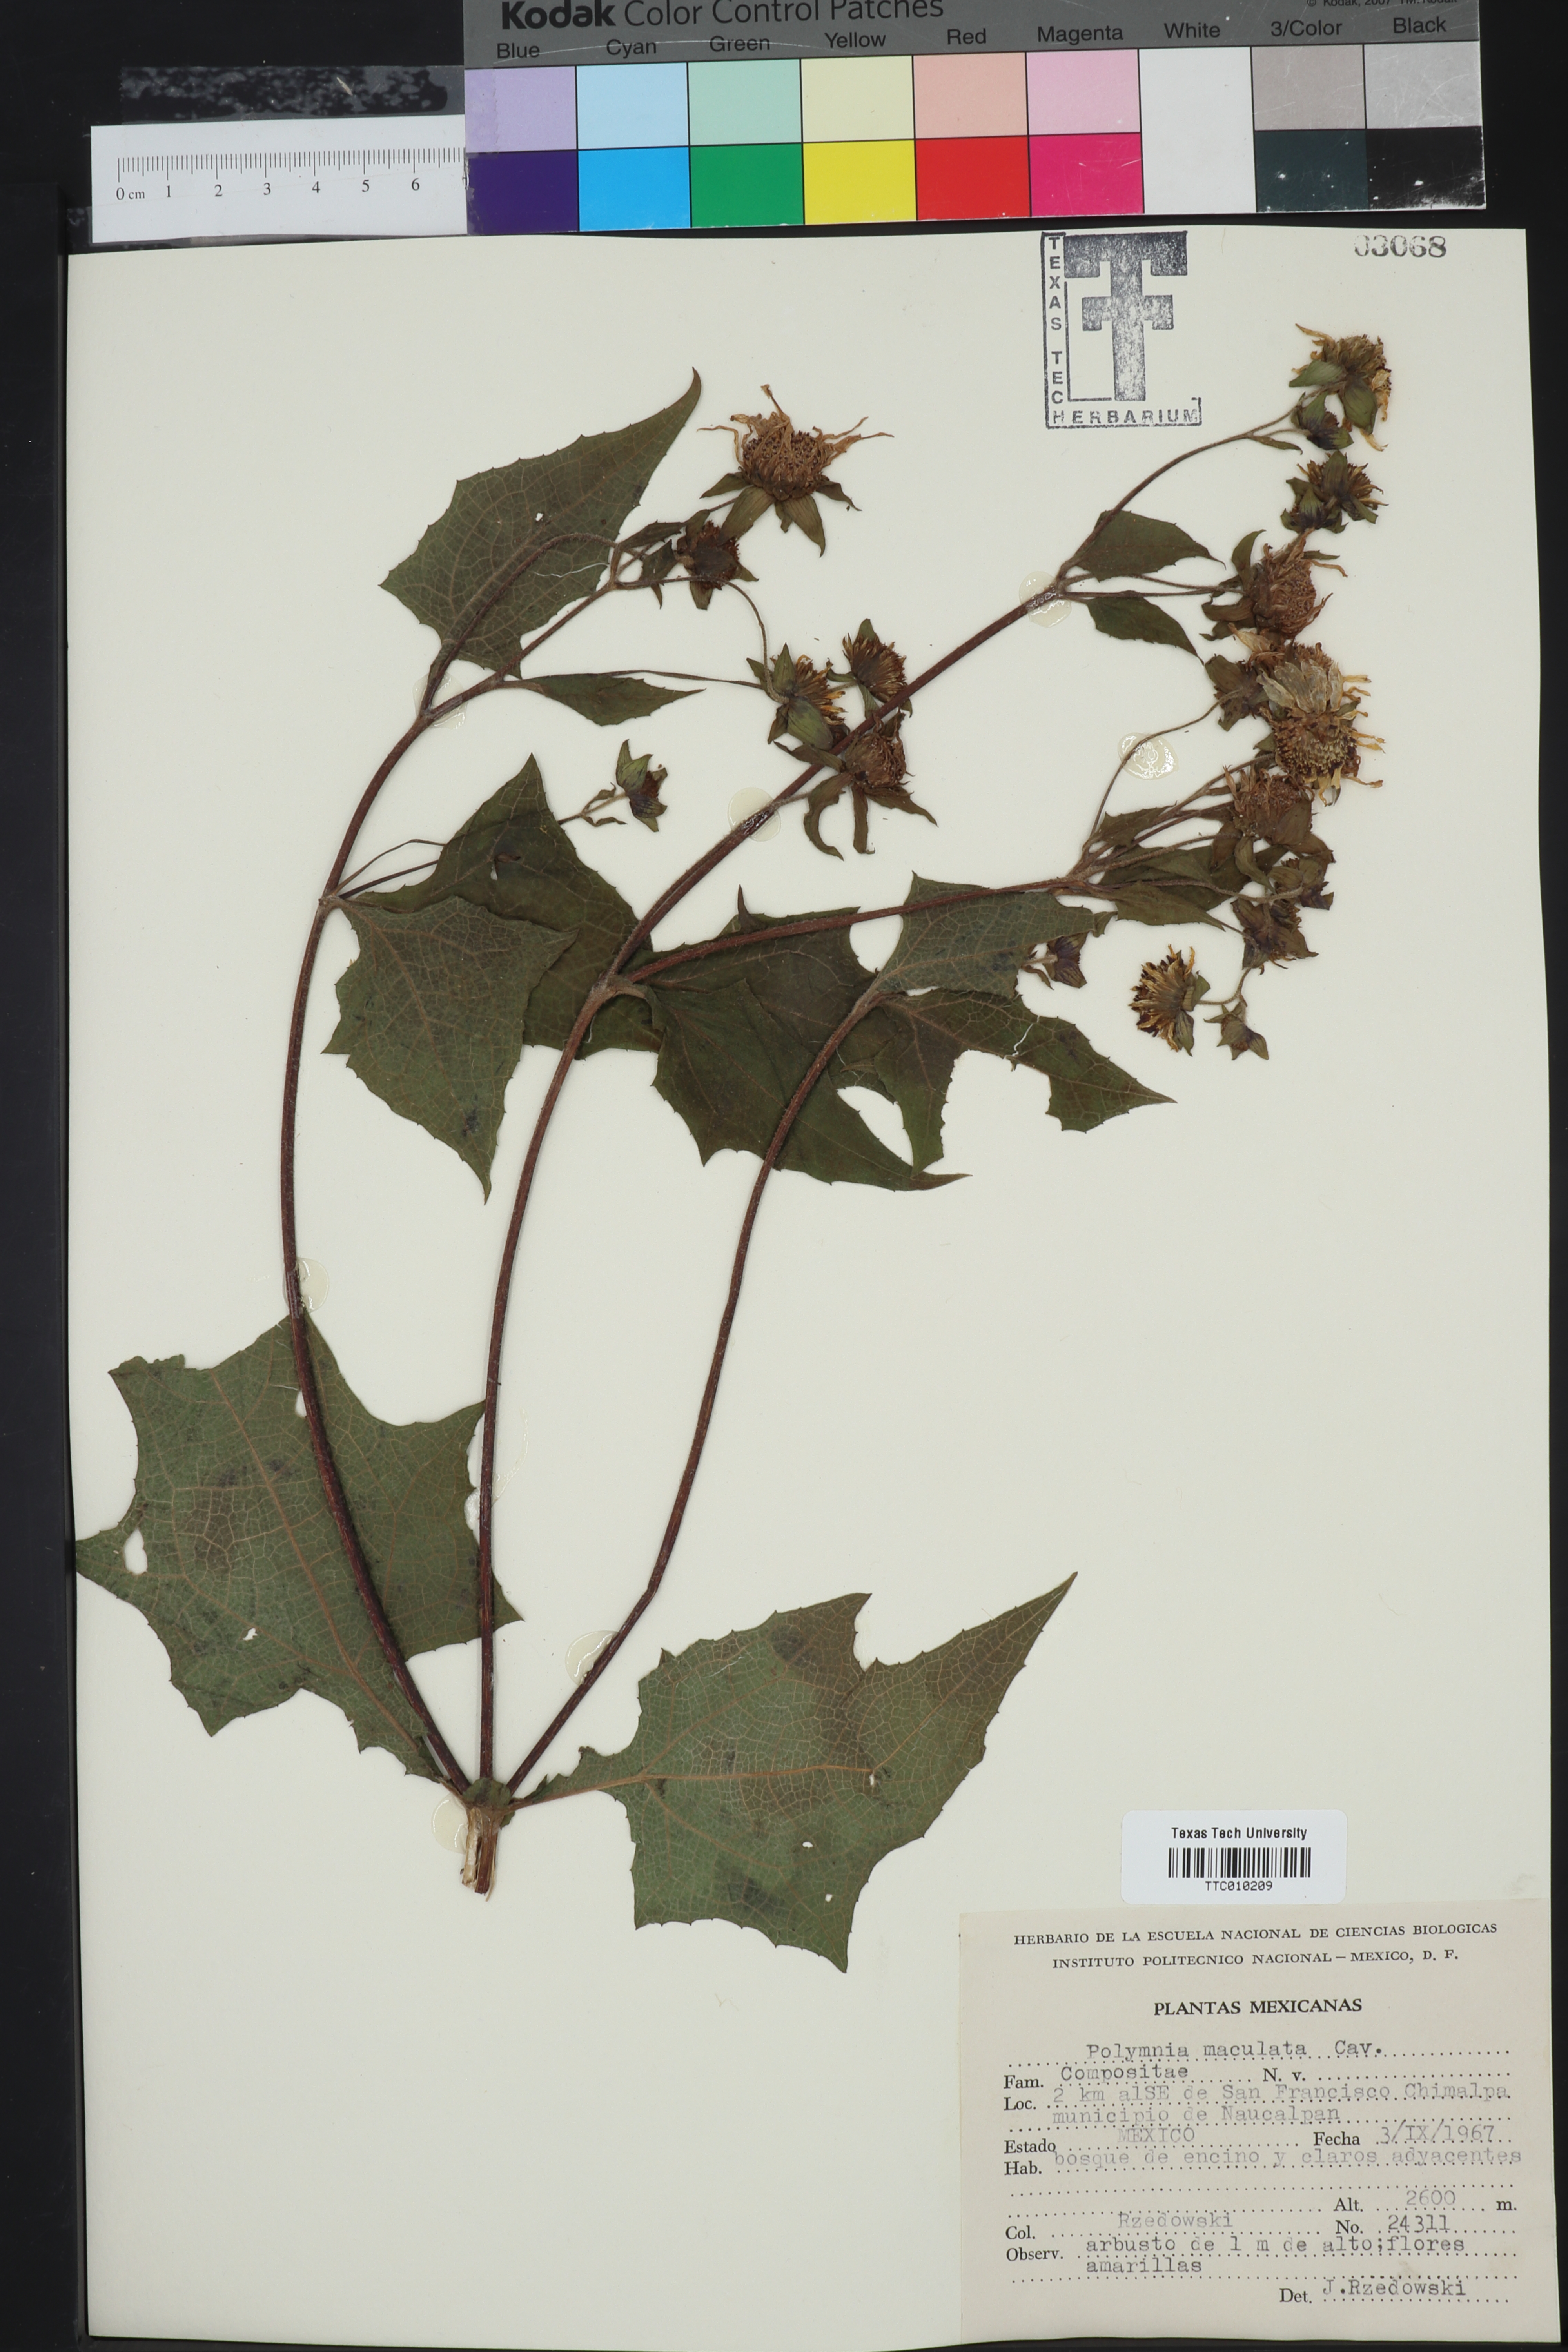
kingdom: Plantae
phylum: Tracheophyta
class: Magnoliopsida
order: Asterales
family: Asteraceae
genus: Smallanthus
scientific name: Smallanthus maculatus
